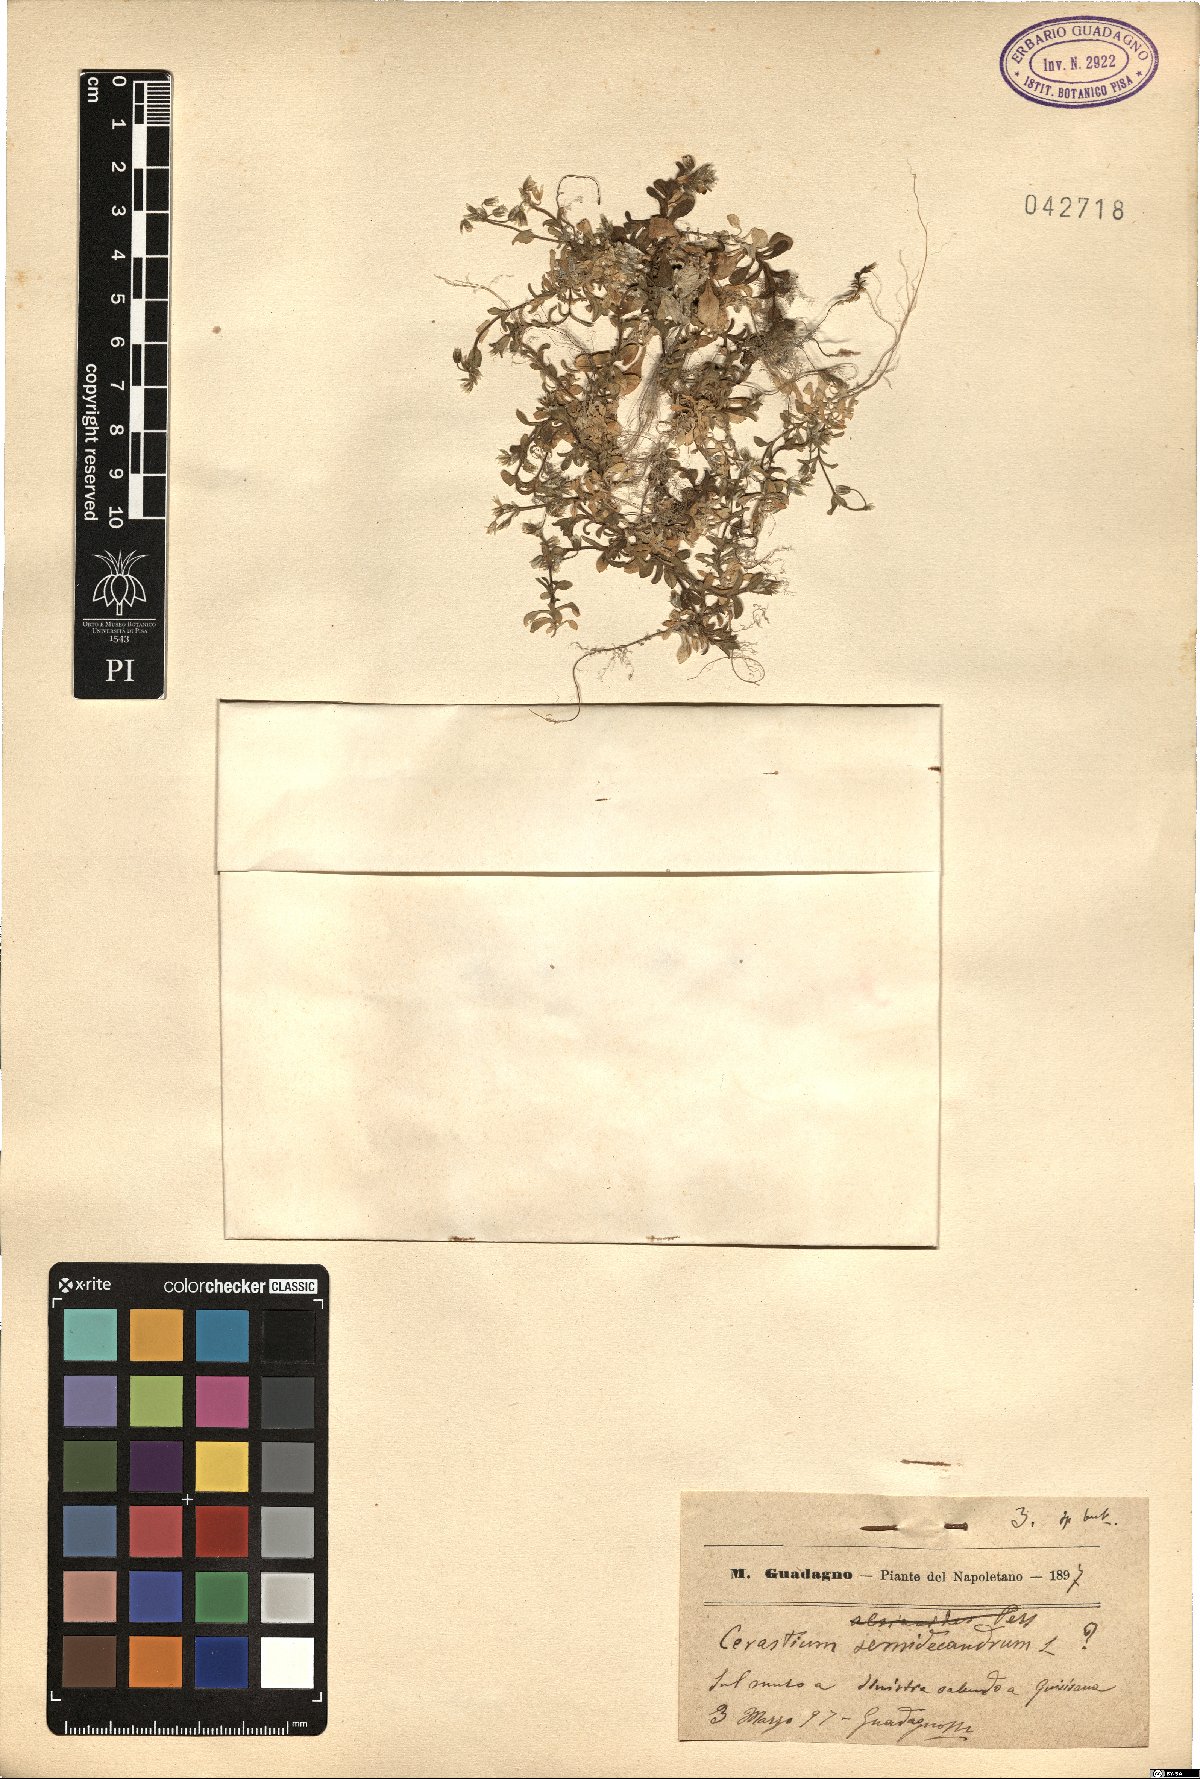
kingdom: Plantae
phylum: Tracheophyta
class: Magnoliopsida
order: Caryophyllales
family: Caryophyllaceae
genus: Cerastium
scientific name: Cerastium semidecandrum
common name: Little mouse-ear
